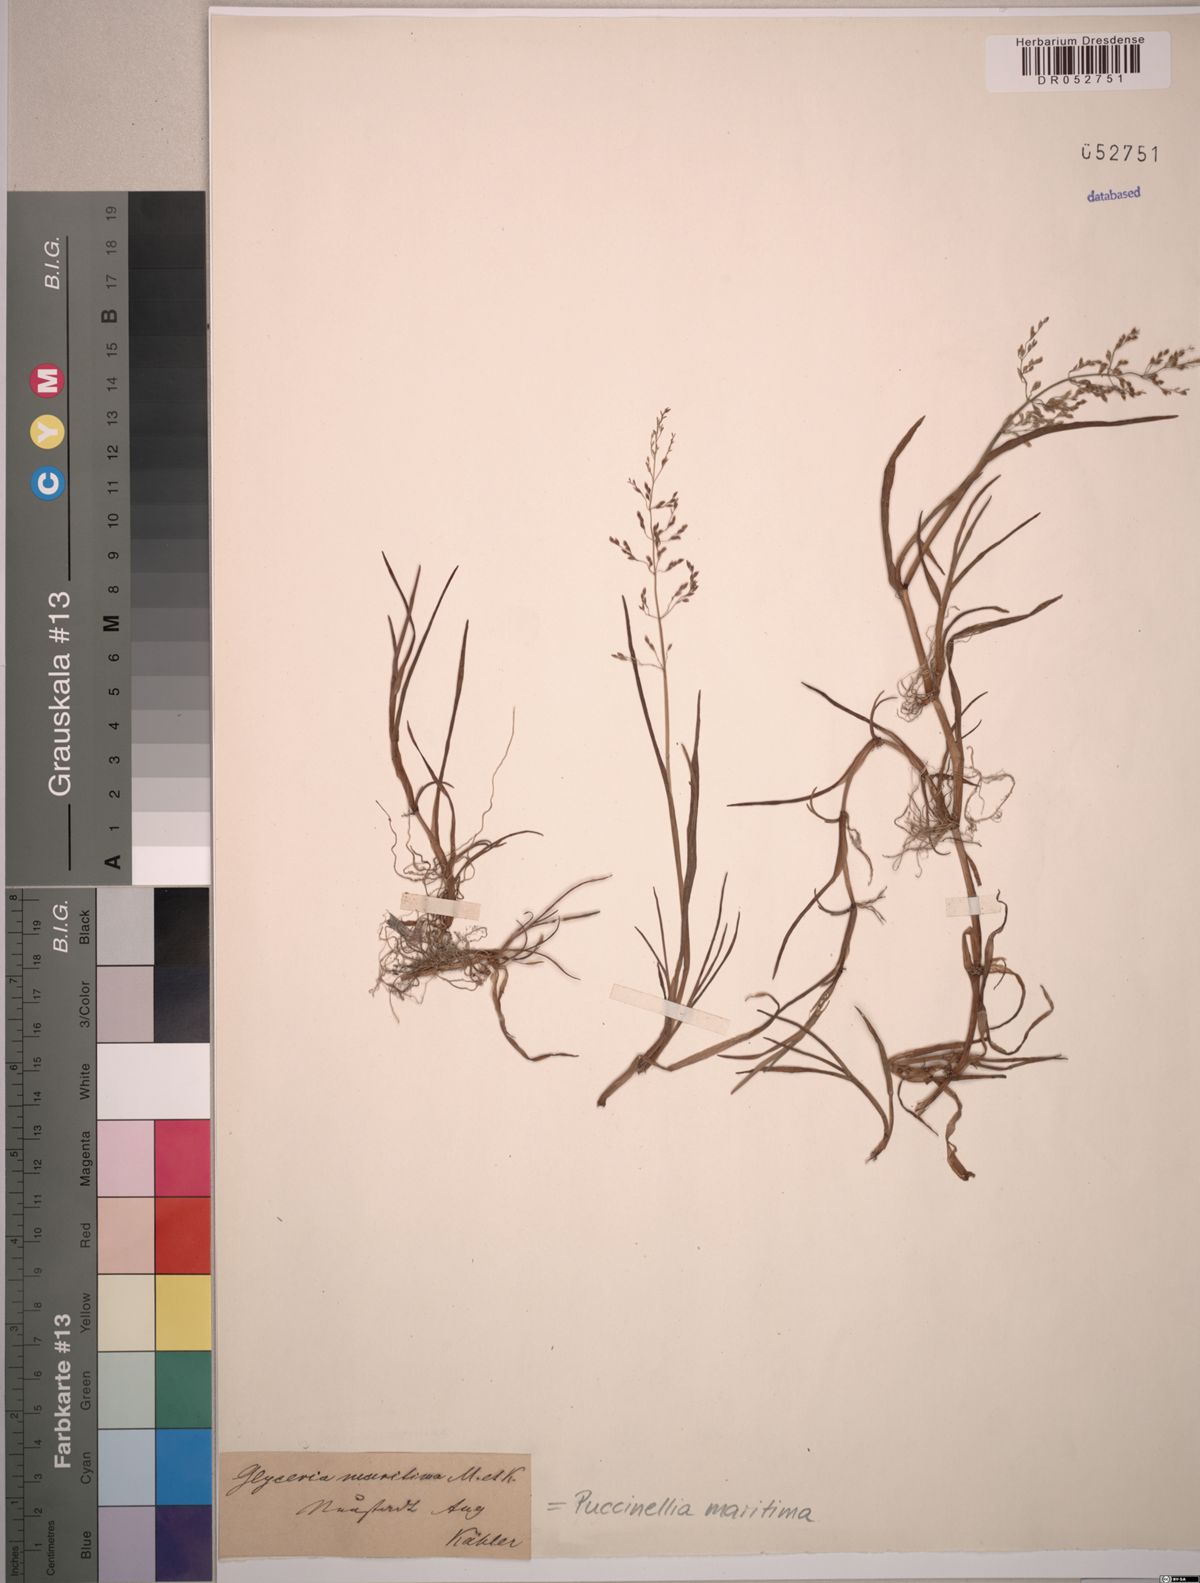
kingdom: Plantae
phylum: Tracheophyta
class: Liliopsida
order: Poales
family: Poaceae
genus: Puccinellia
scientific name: Puccinellia maritima
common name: Common saltmarsh grass
